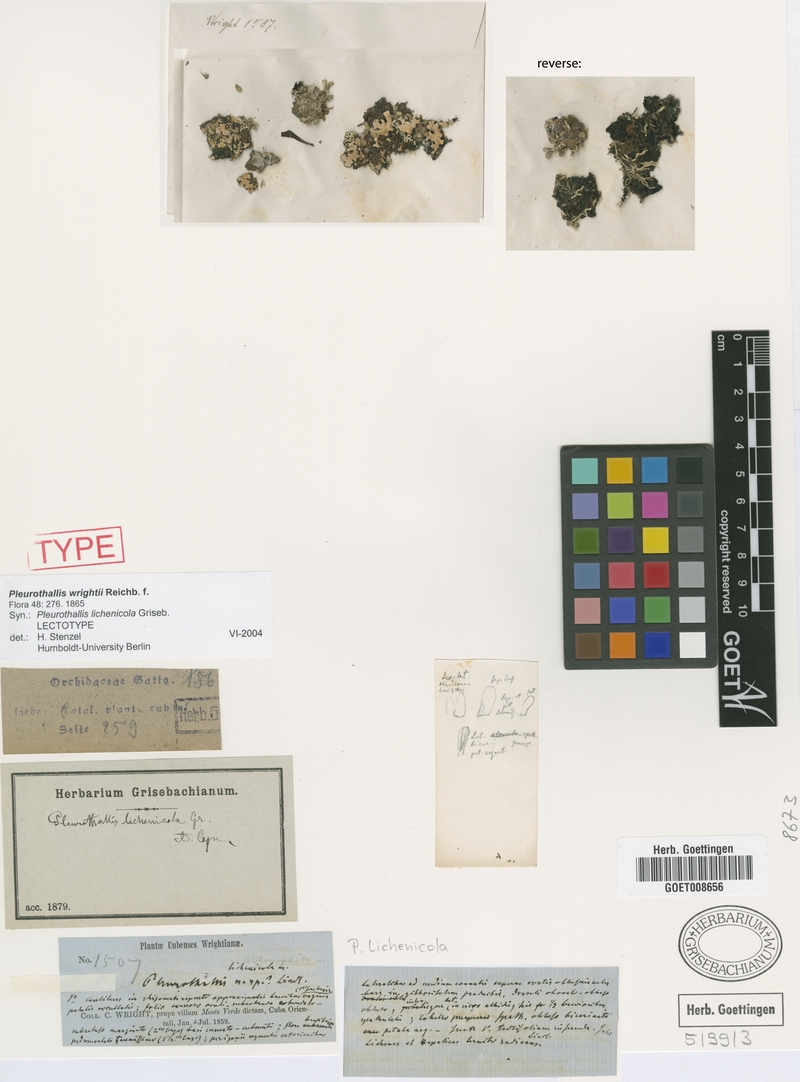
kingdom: Plantae
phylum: Tracheophyta
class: Liliopsida
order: Asparagales
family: Orchidaceae
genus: Specklinia
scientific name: Specklinia wrightii
